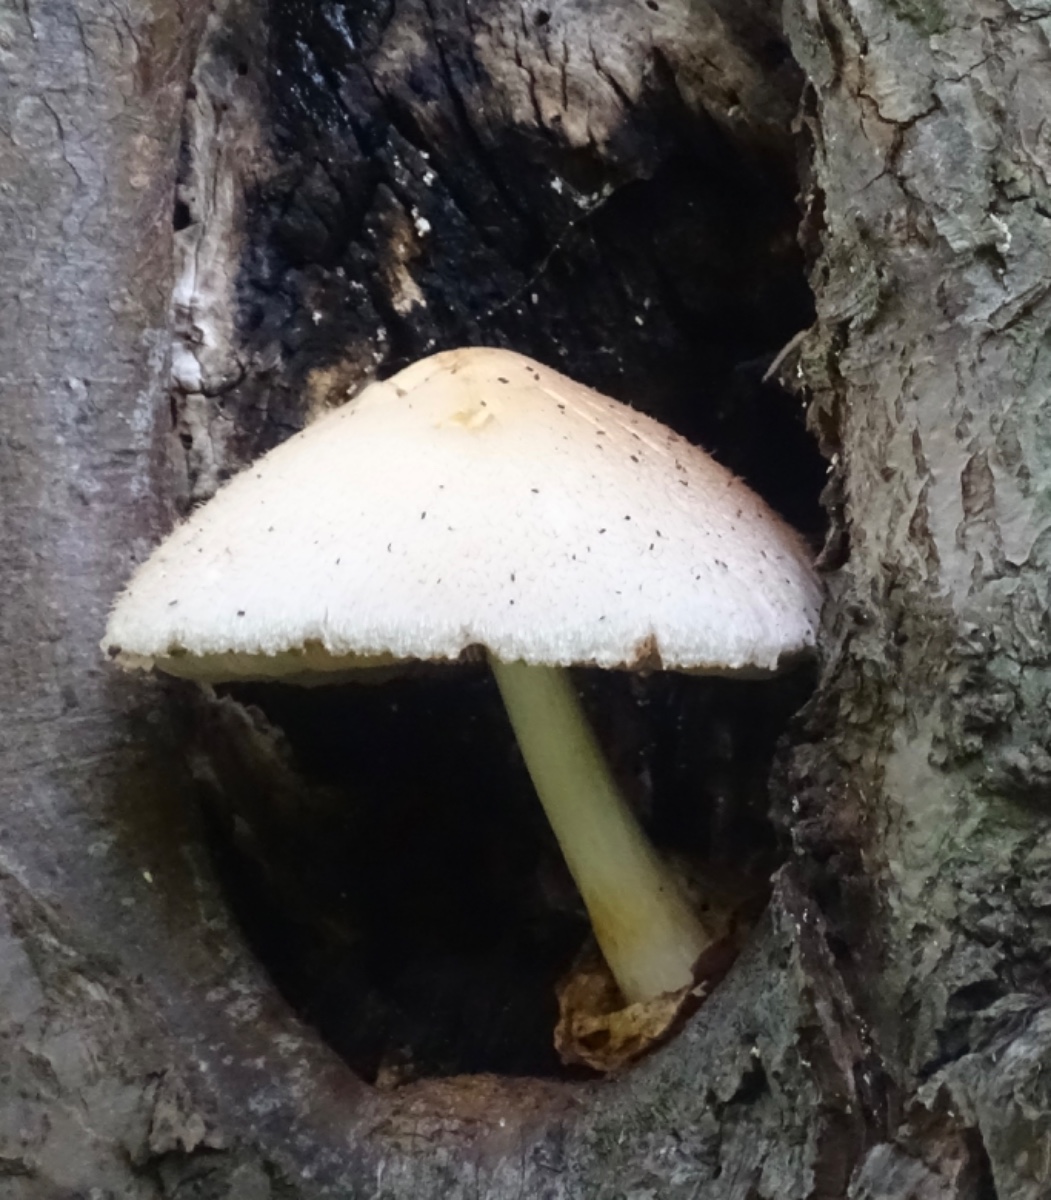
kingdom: Fungi
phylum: Basidiomycota
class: Agaricomycetes
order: Agaricales
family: Pluteaceae
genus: Volvariella
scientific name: Volvariella bombycina
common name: silkehåret posesvamp
